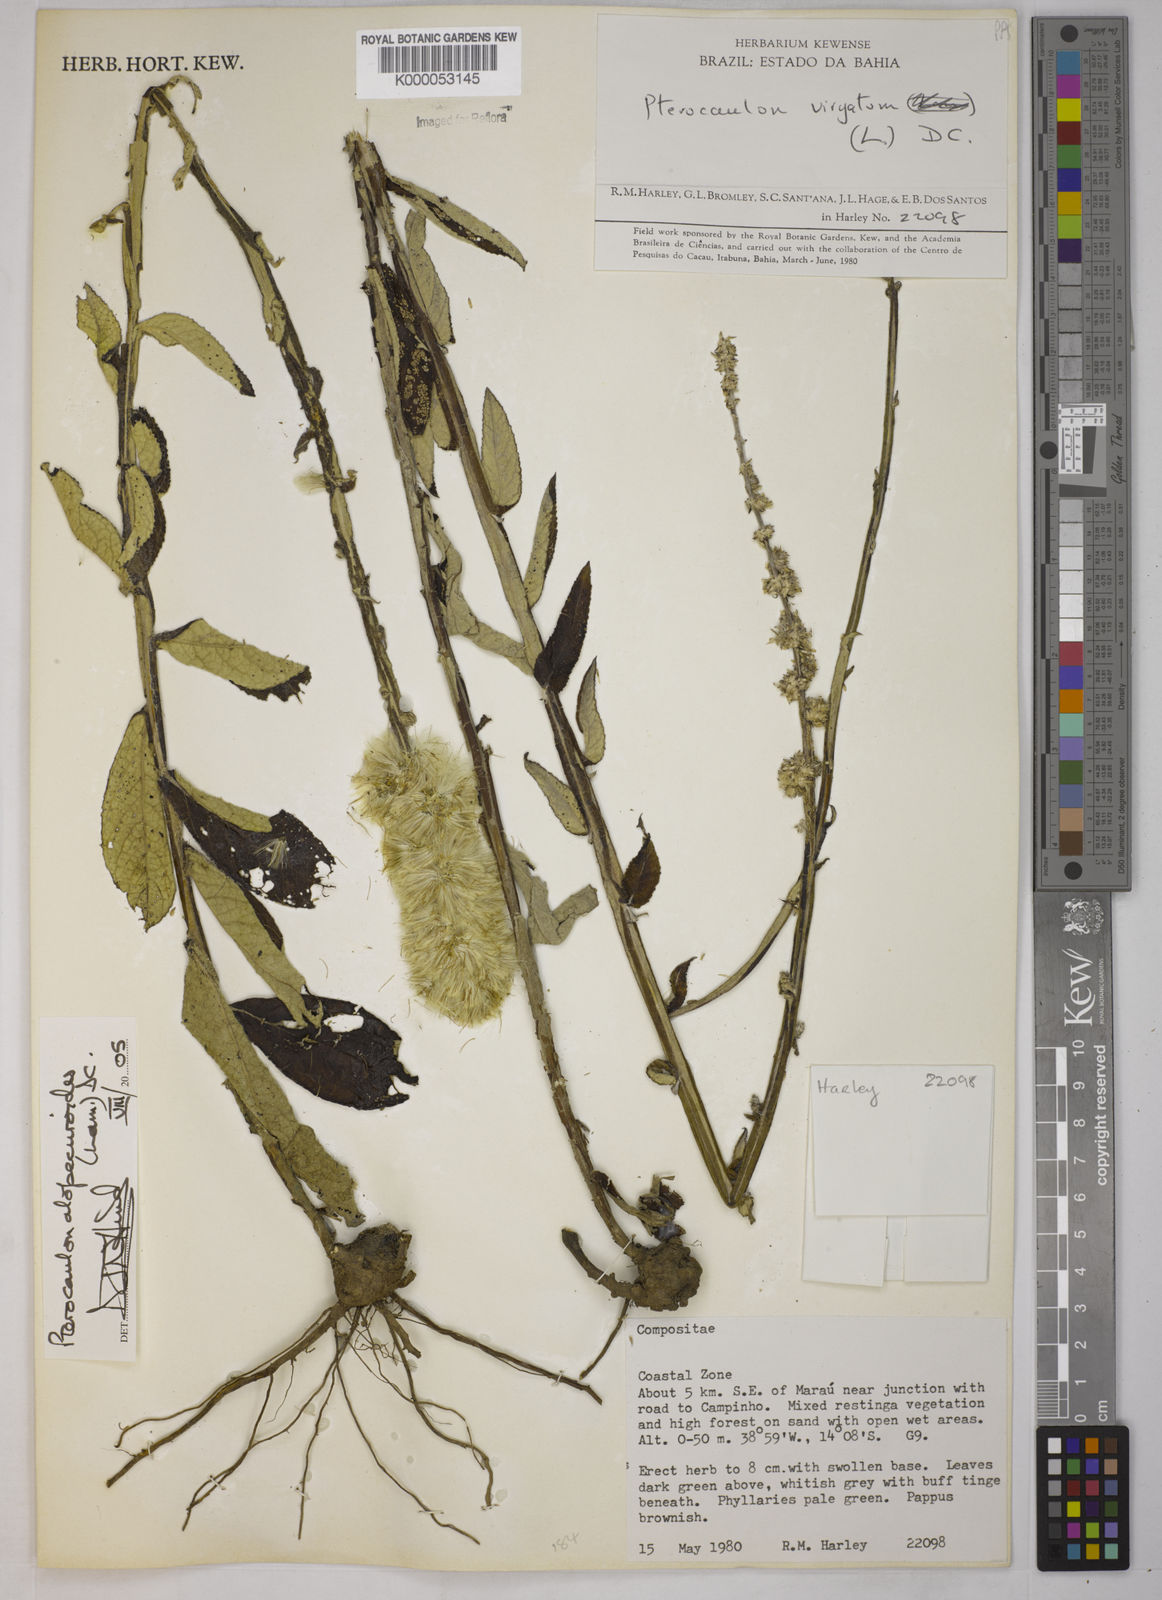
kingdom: Plantae
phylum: Tracheophyta
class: Magnoliopsida
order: Asterales
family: Asteraceae
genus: Pterocaulon
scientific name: Pterocaulon alopecuroides
